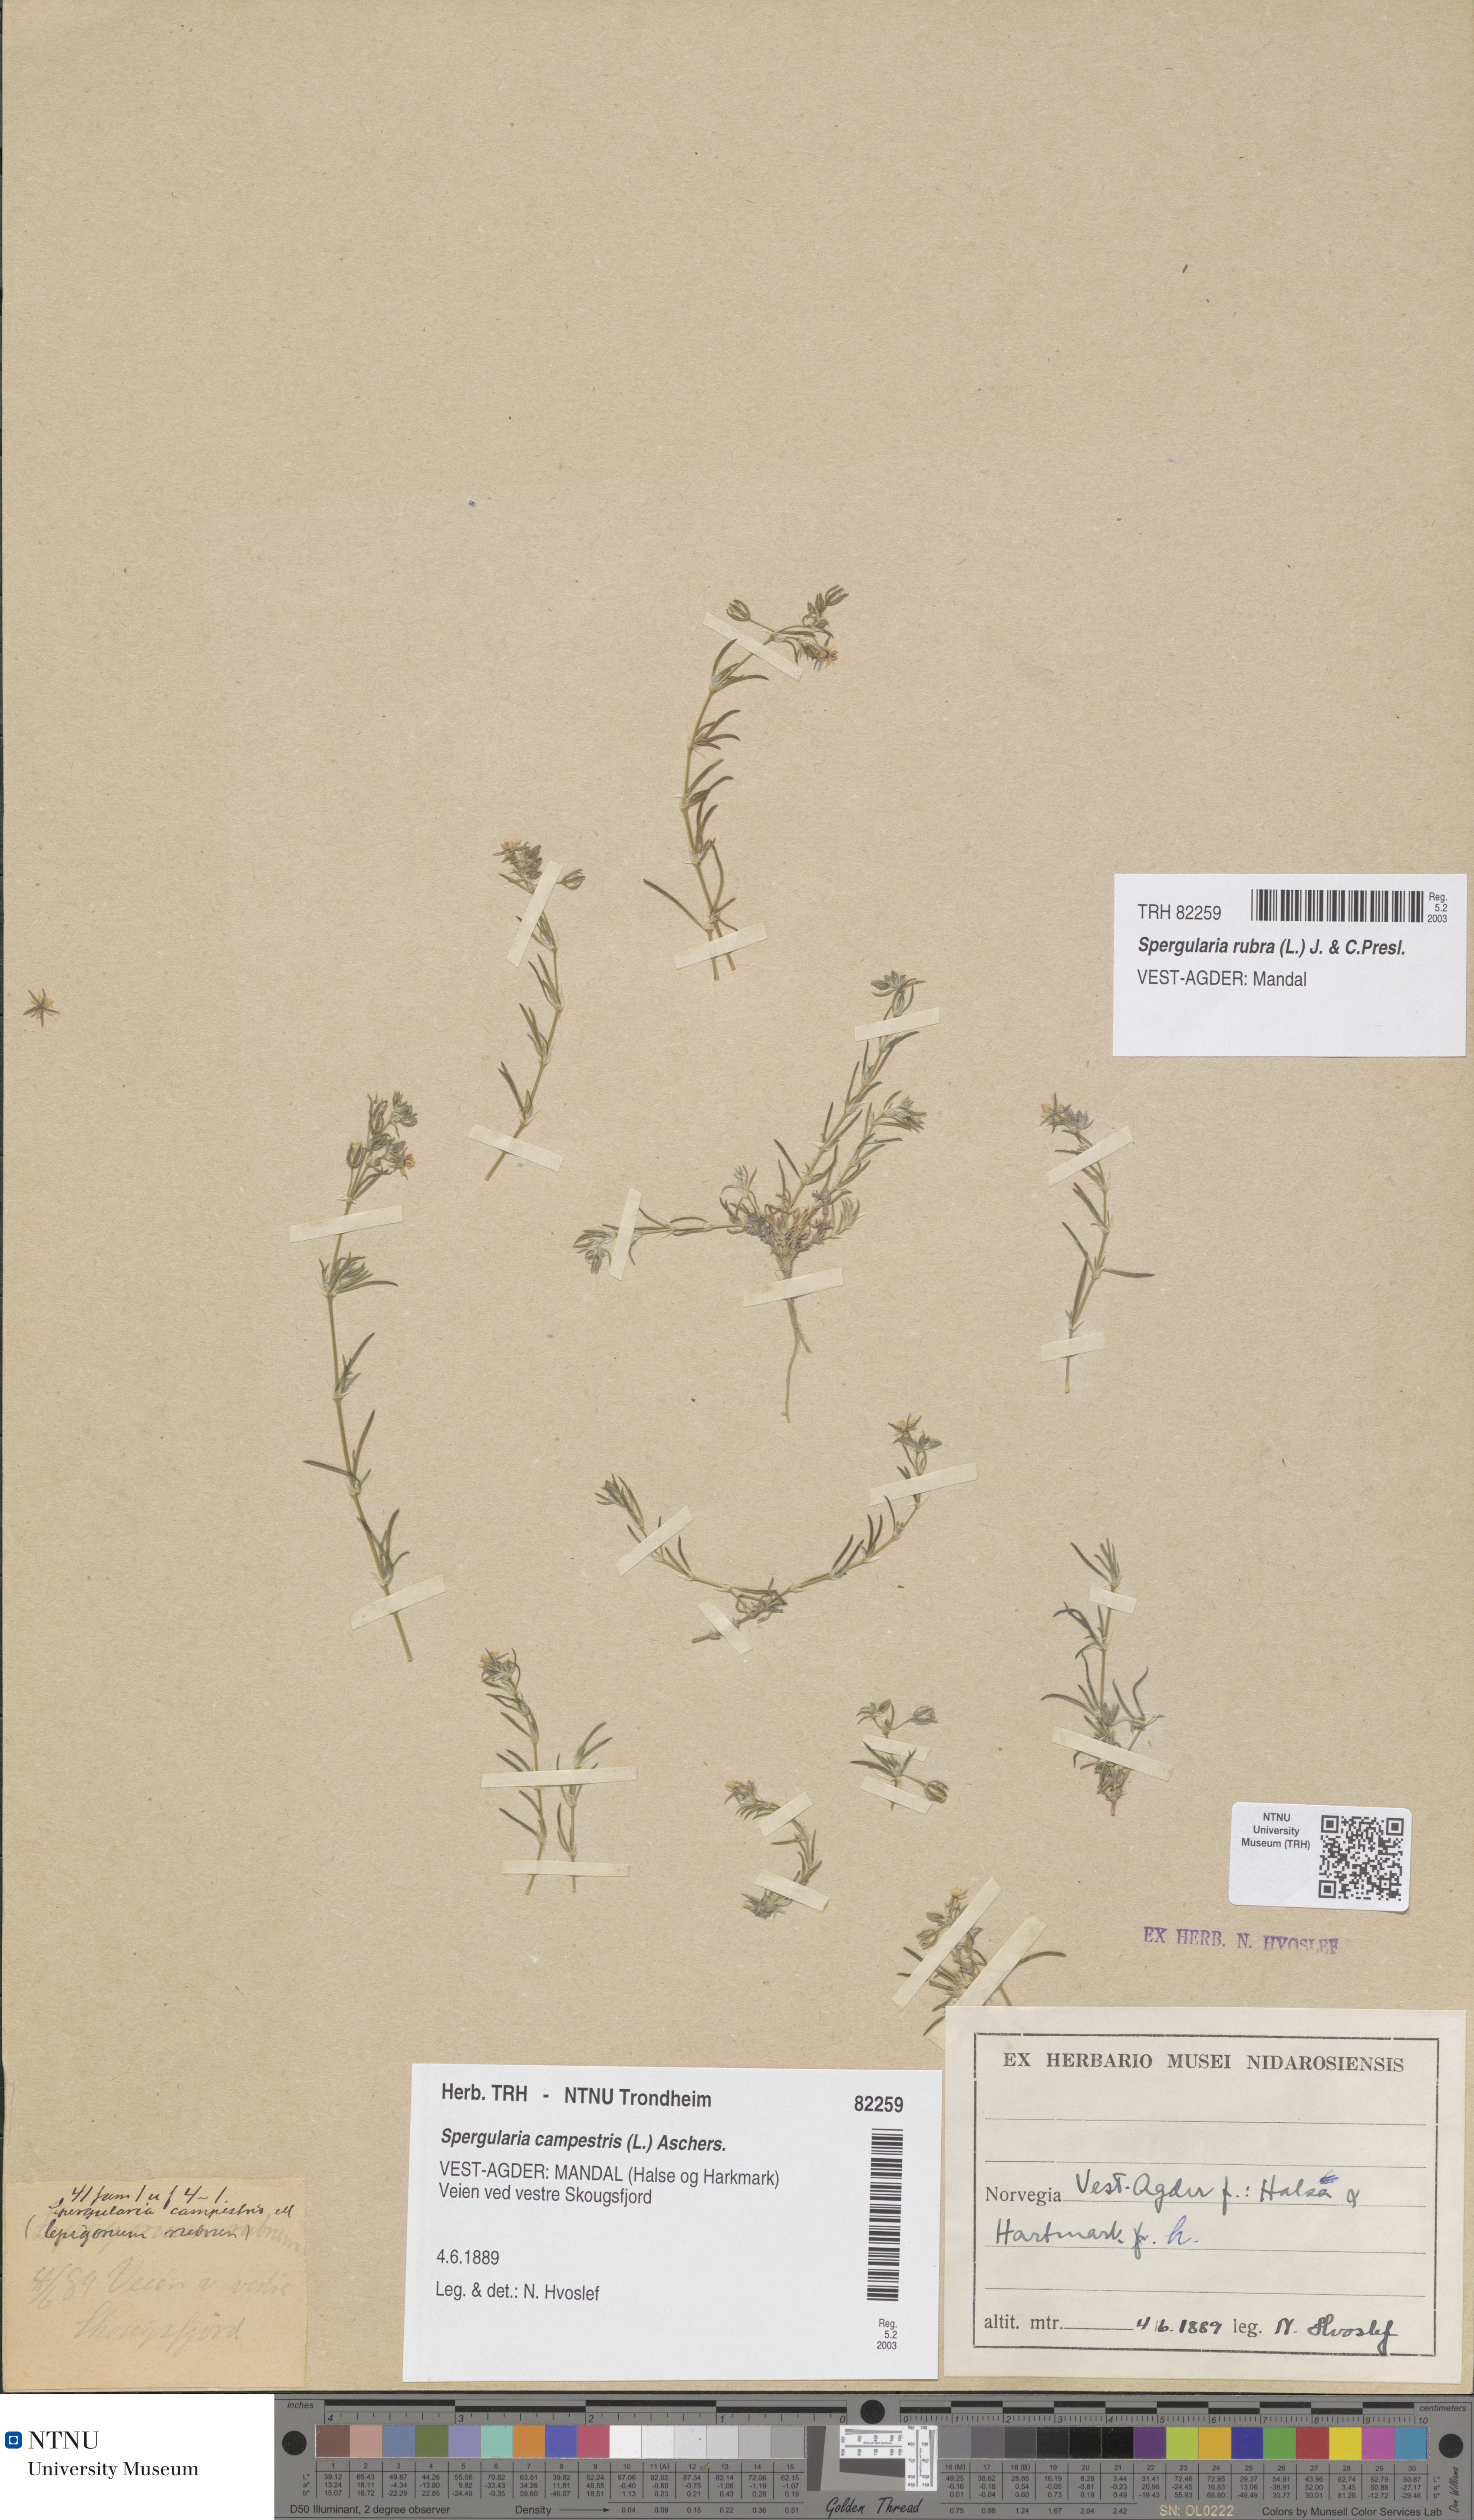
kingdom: Plantae
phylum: Tracheophyta
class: Magnoliopsida
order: Caryophyllales
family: Caryophyllaceae
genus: Spergularia
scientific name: Spergularia rubra
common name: Red sand-spurrey
